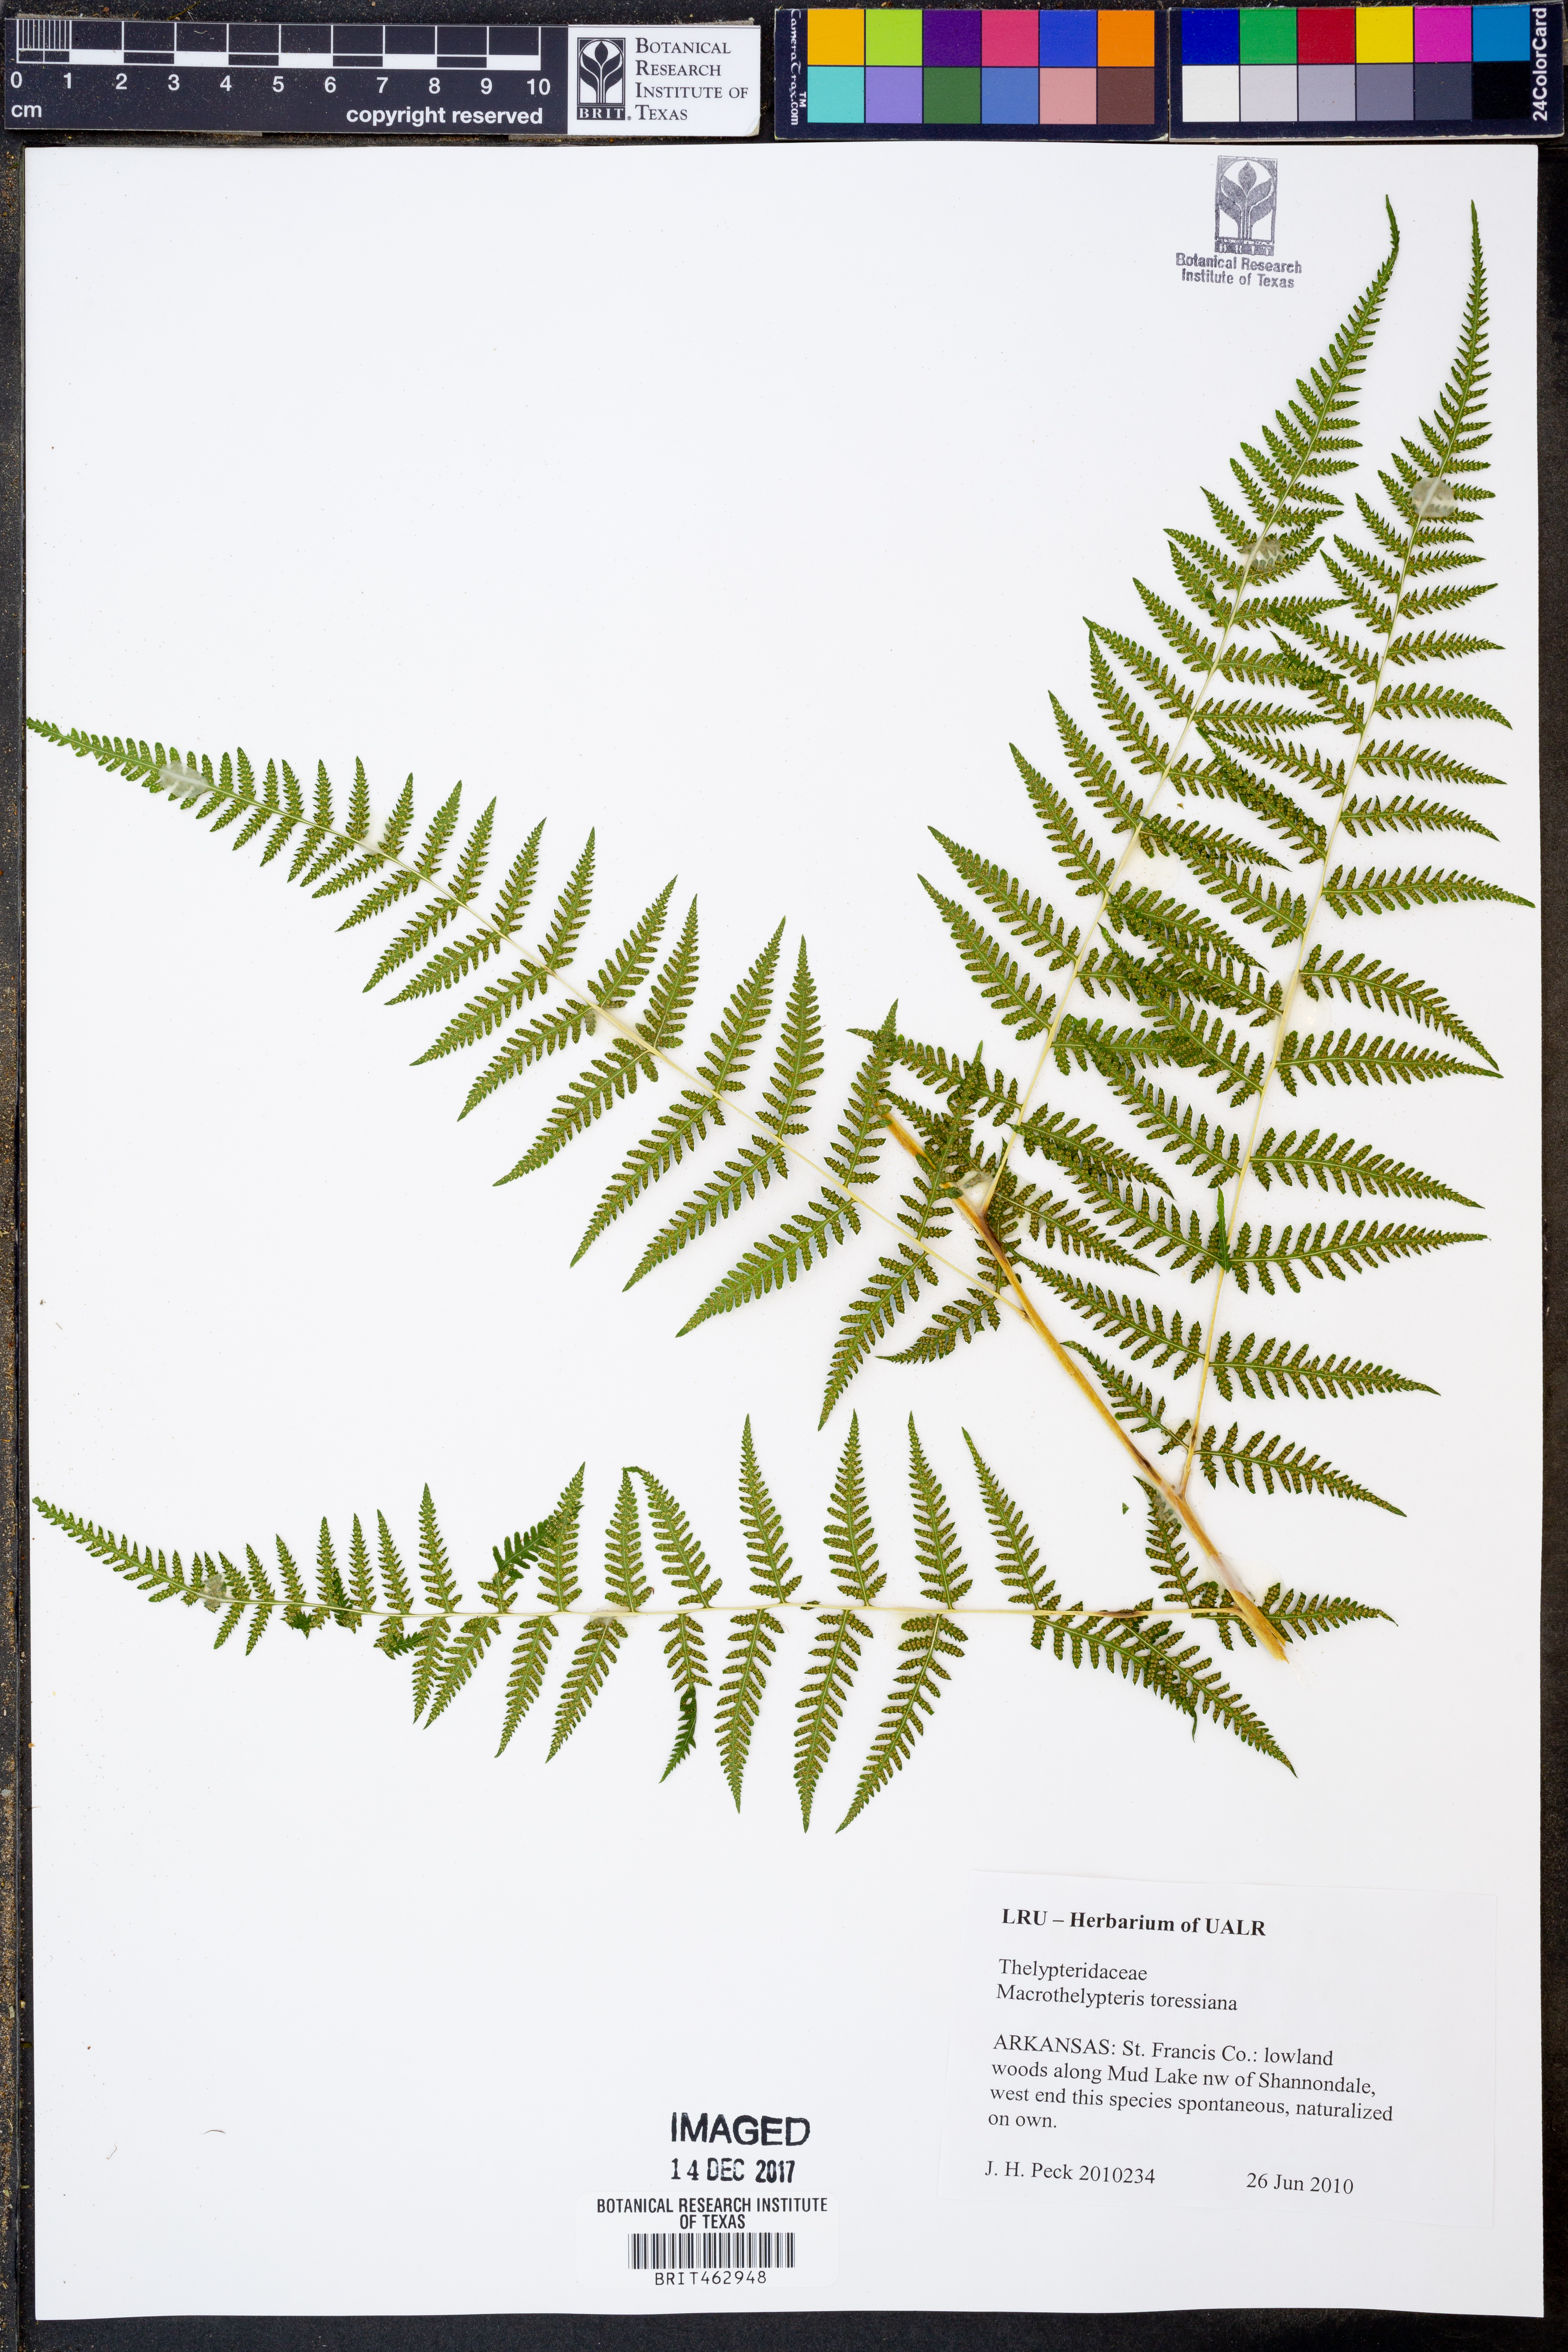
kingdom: Plantae
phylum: Tracheophyta
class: Polypodiopsida
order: Polypodiales
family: Thelypteridaceae
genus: Macrothelypteris
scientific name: Macrothelypteris torresiana
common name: Swordfern
